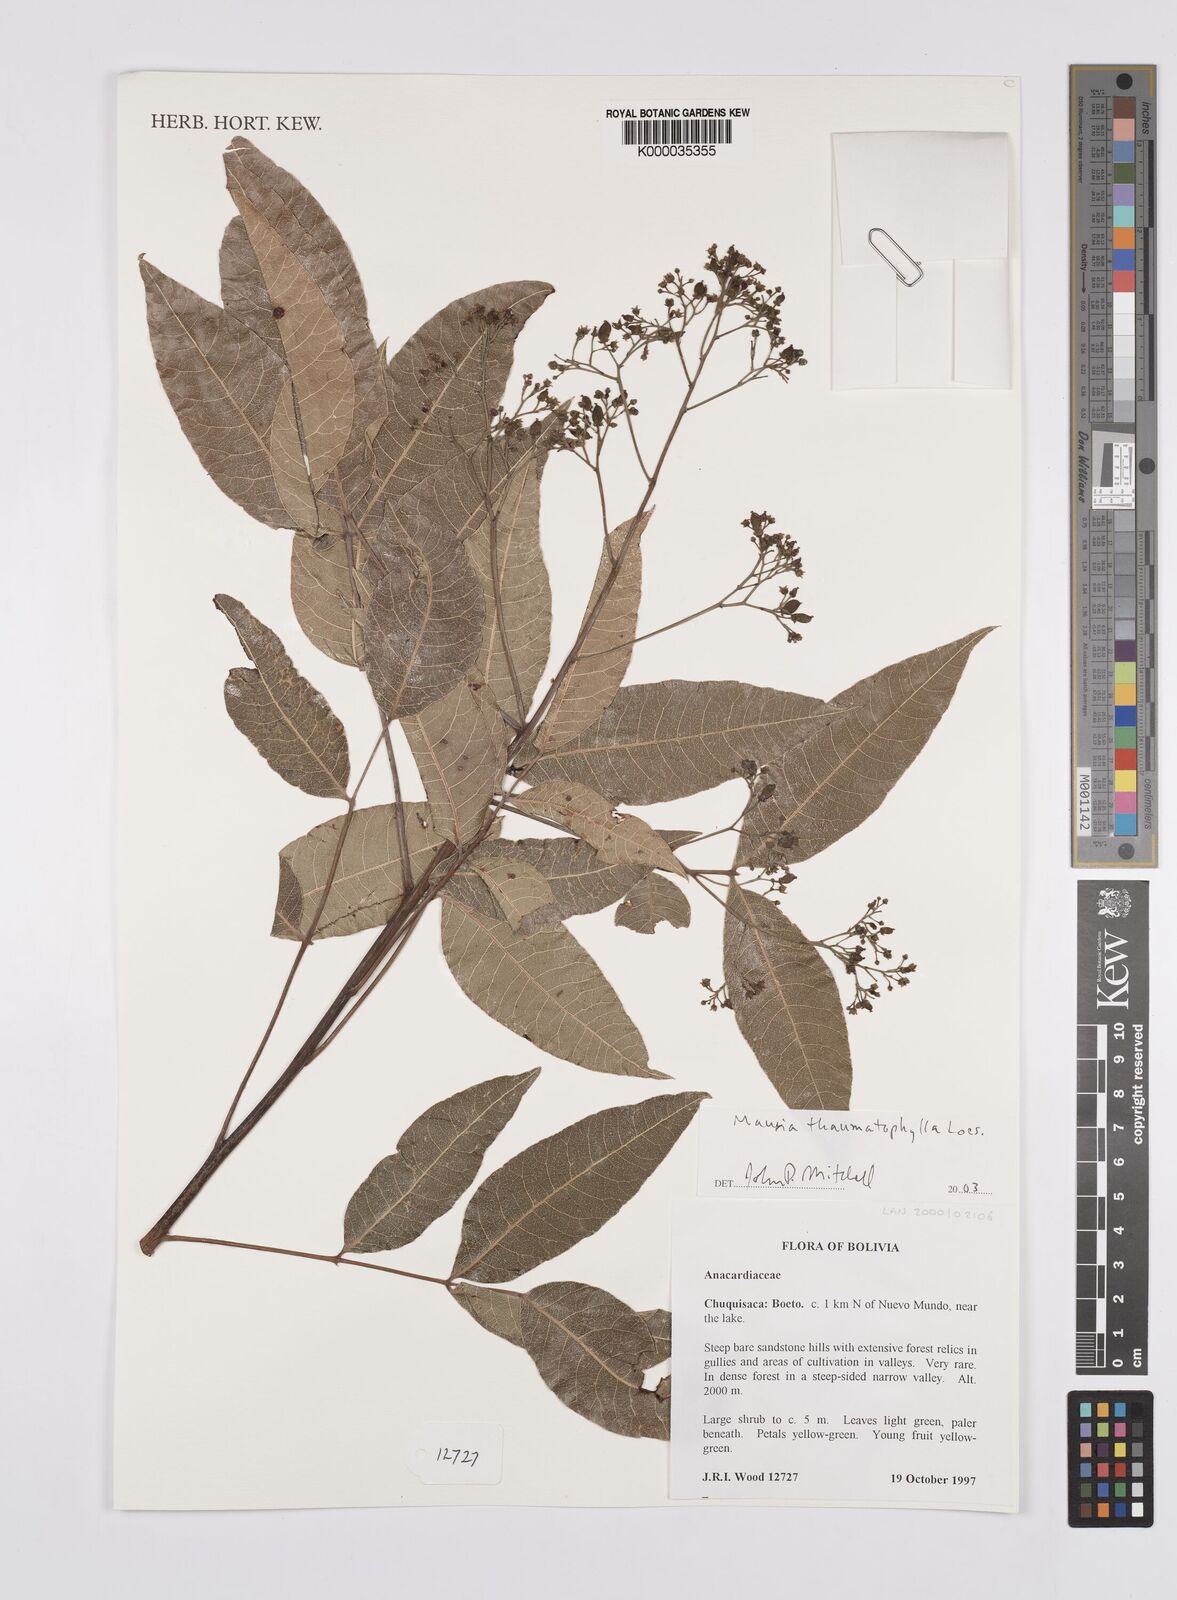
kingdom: Plantae
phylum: Tracheophyta
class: Magnoliopsida
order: Sapindales
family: Anacardiaceae
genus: Mauria
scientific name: Mauria thaumatophylla
